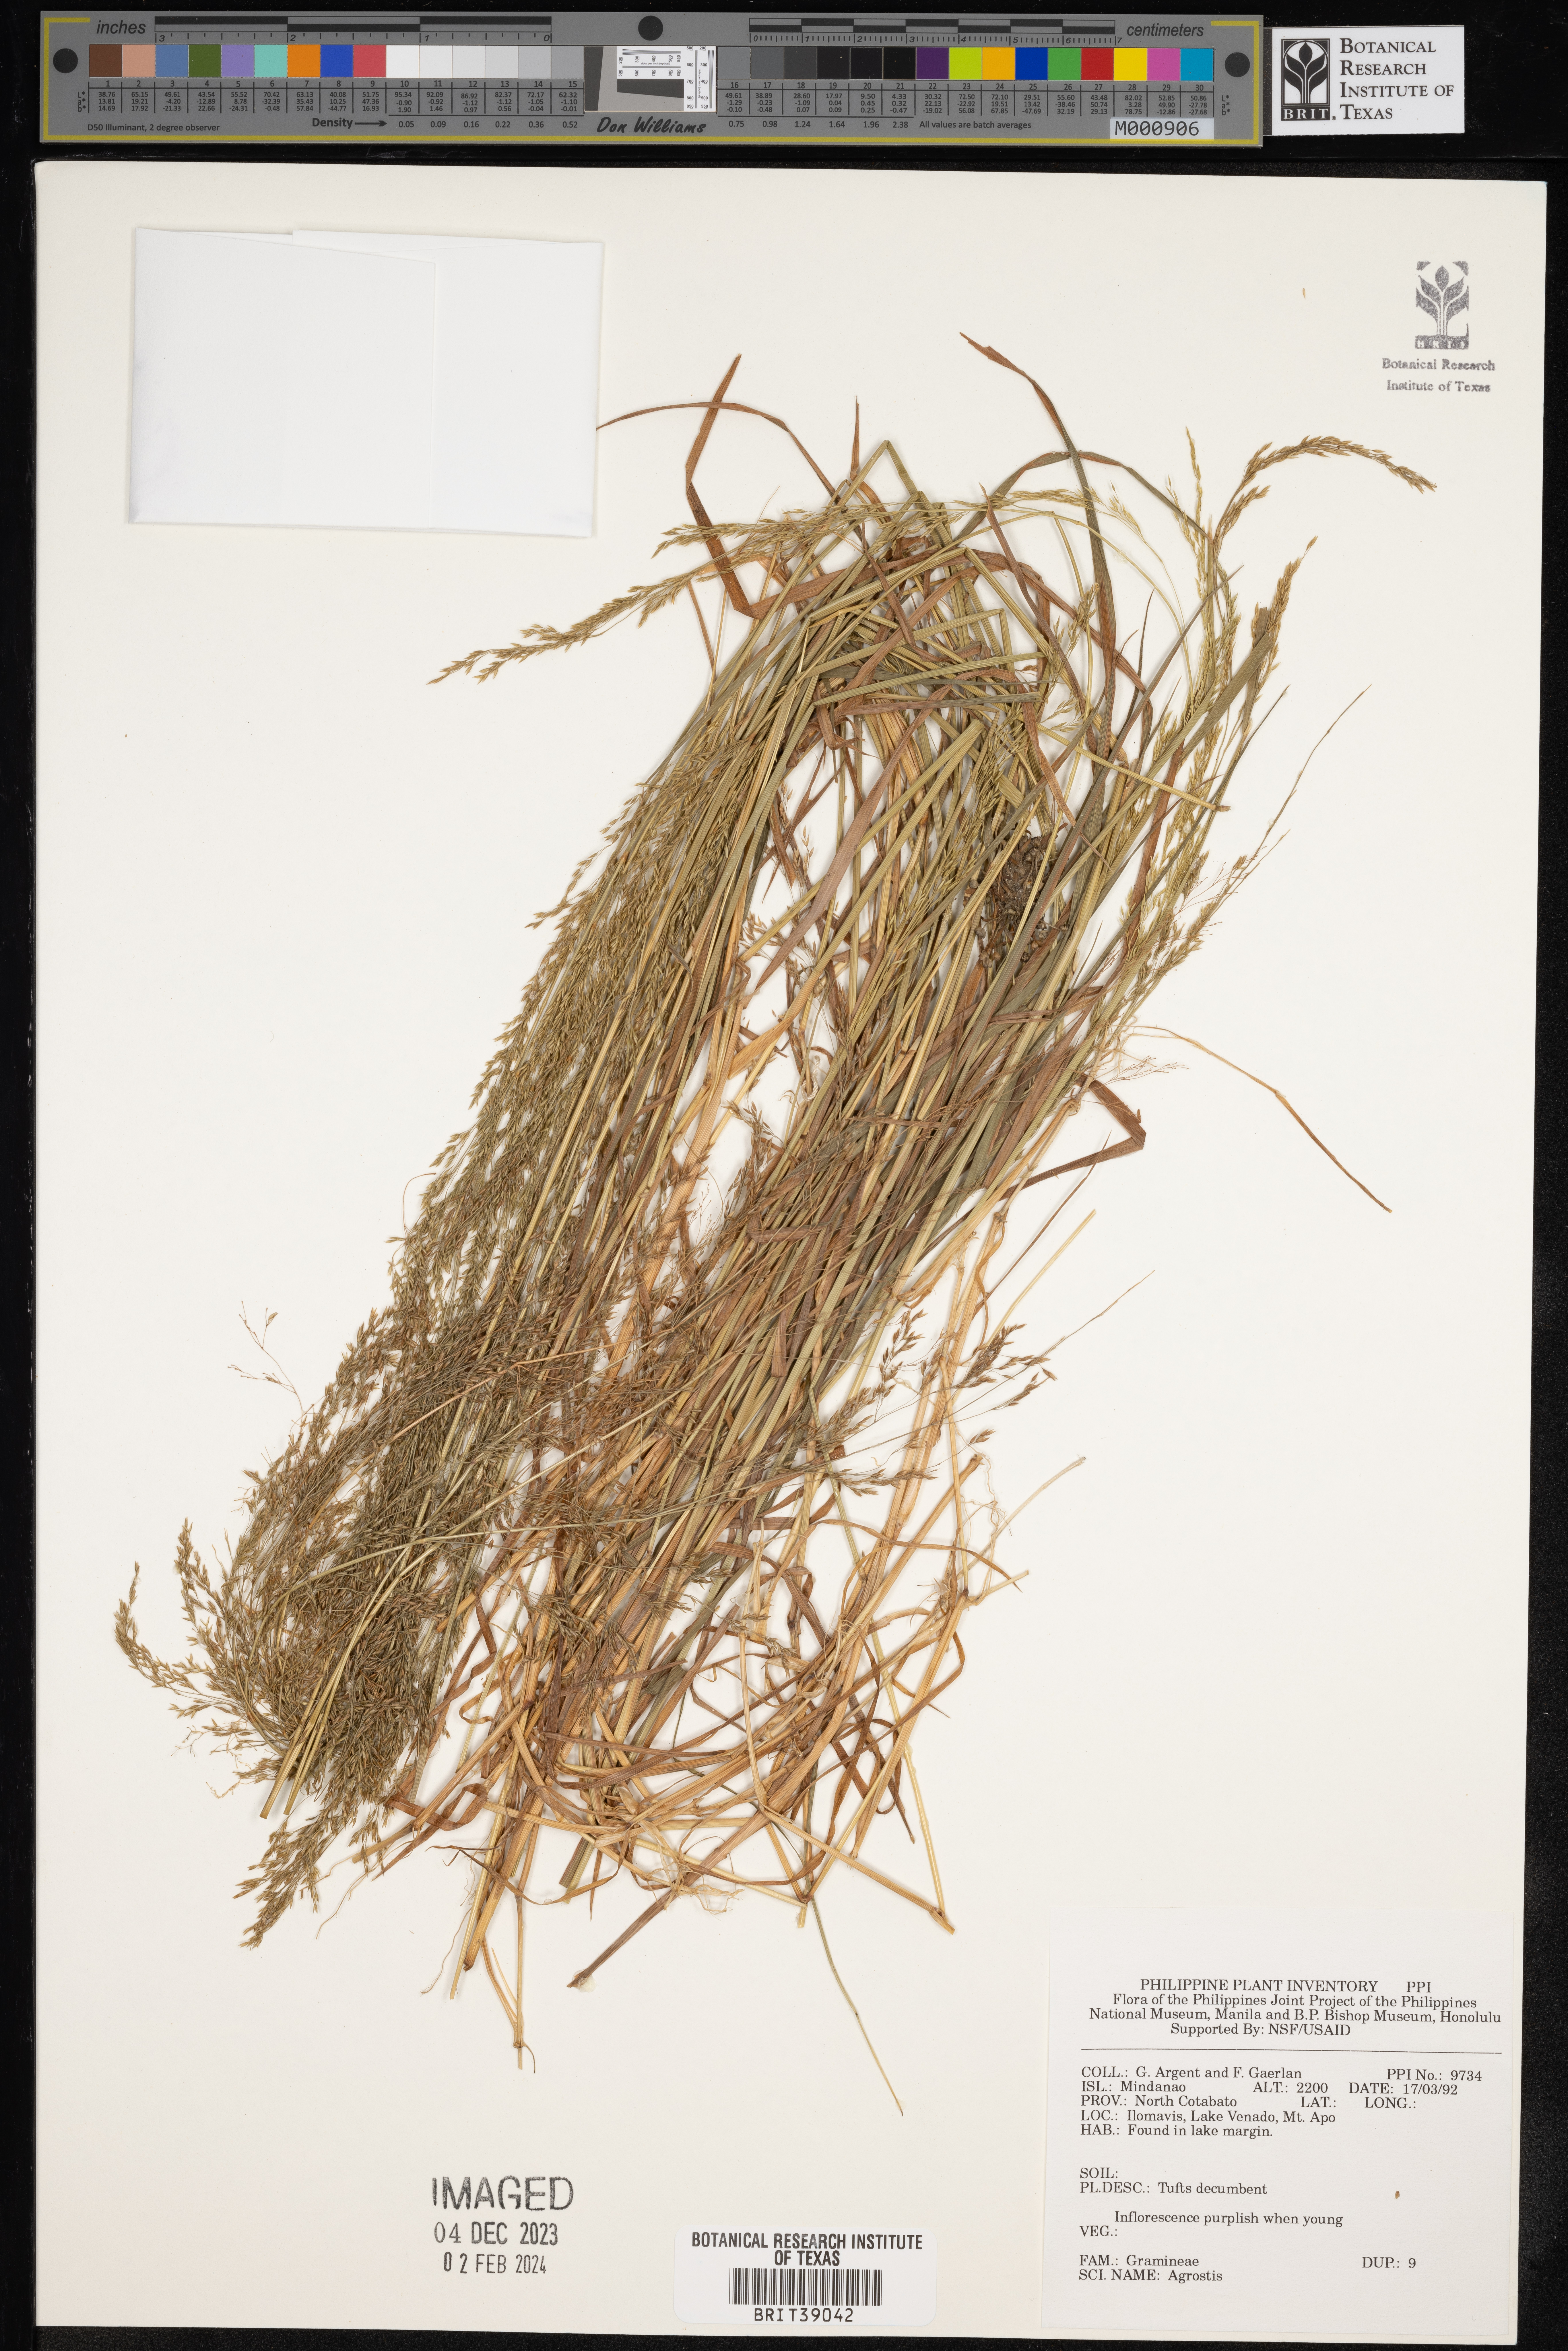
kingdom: Plantae
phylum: Tracheophyta
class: Liliopsida
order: Poales
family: Poaceae
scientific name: Poaceae
